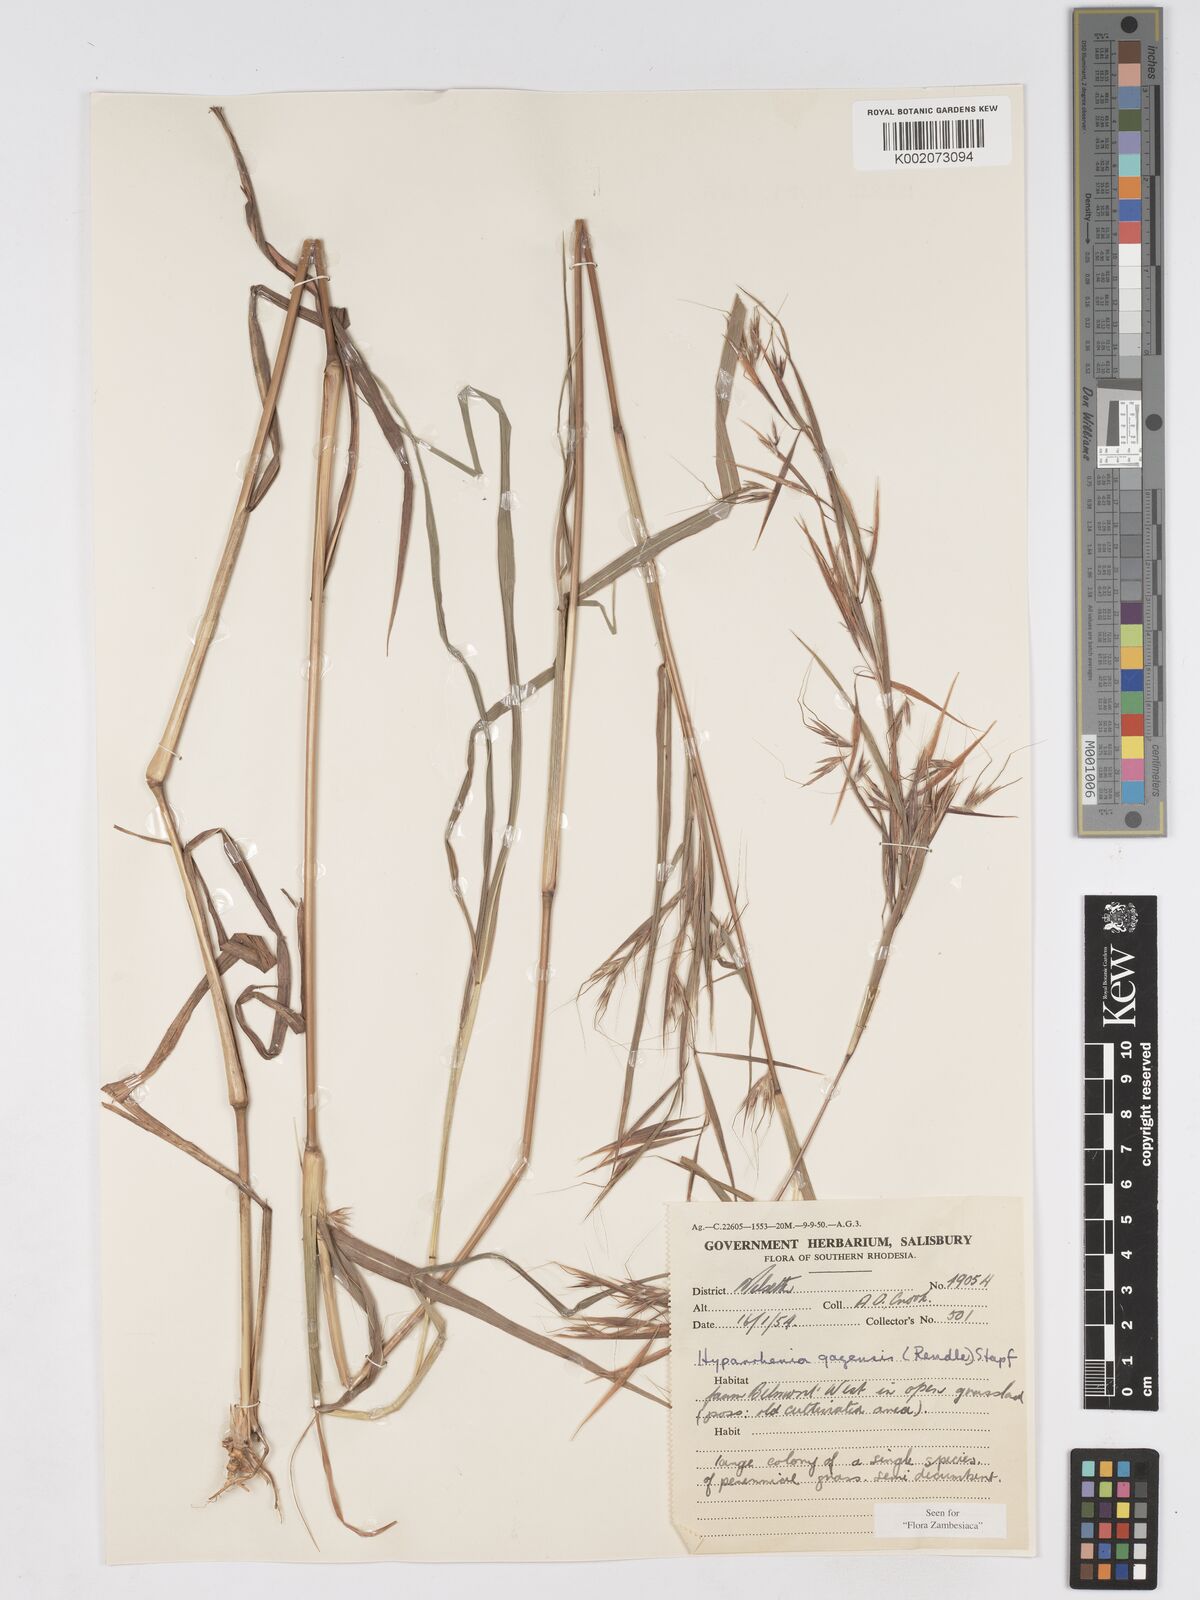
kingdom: Plantae
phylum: Tracheophyta
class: Liliopsida
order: Poales
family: Poaceae
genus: Hyparrhenia
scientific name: Hyparrhenia gazensis
